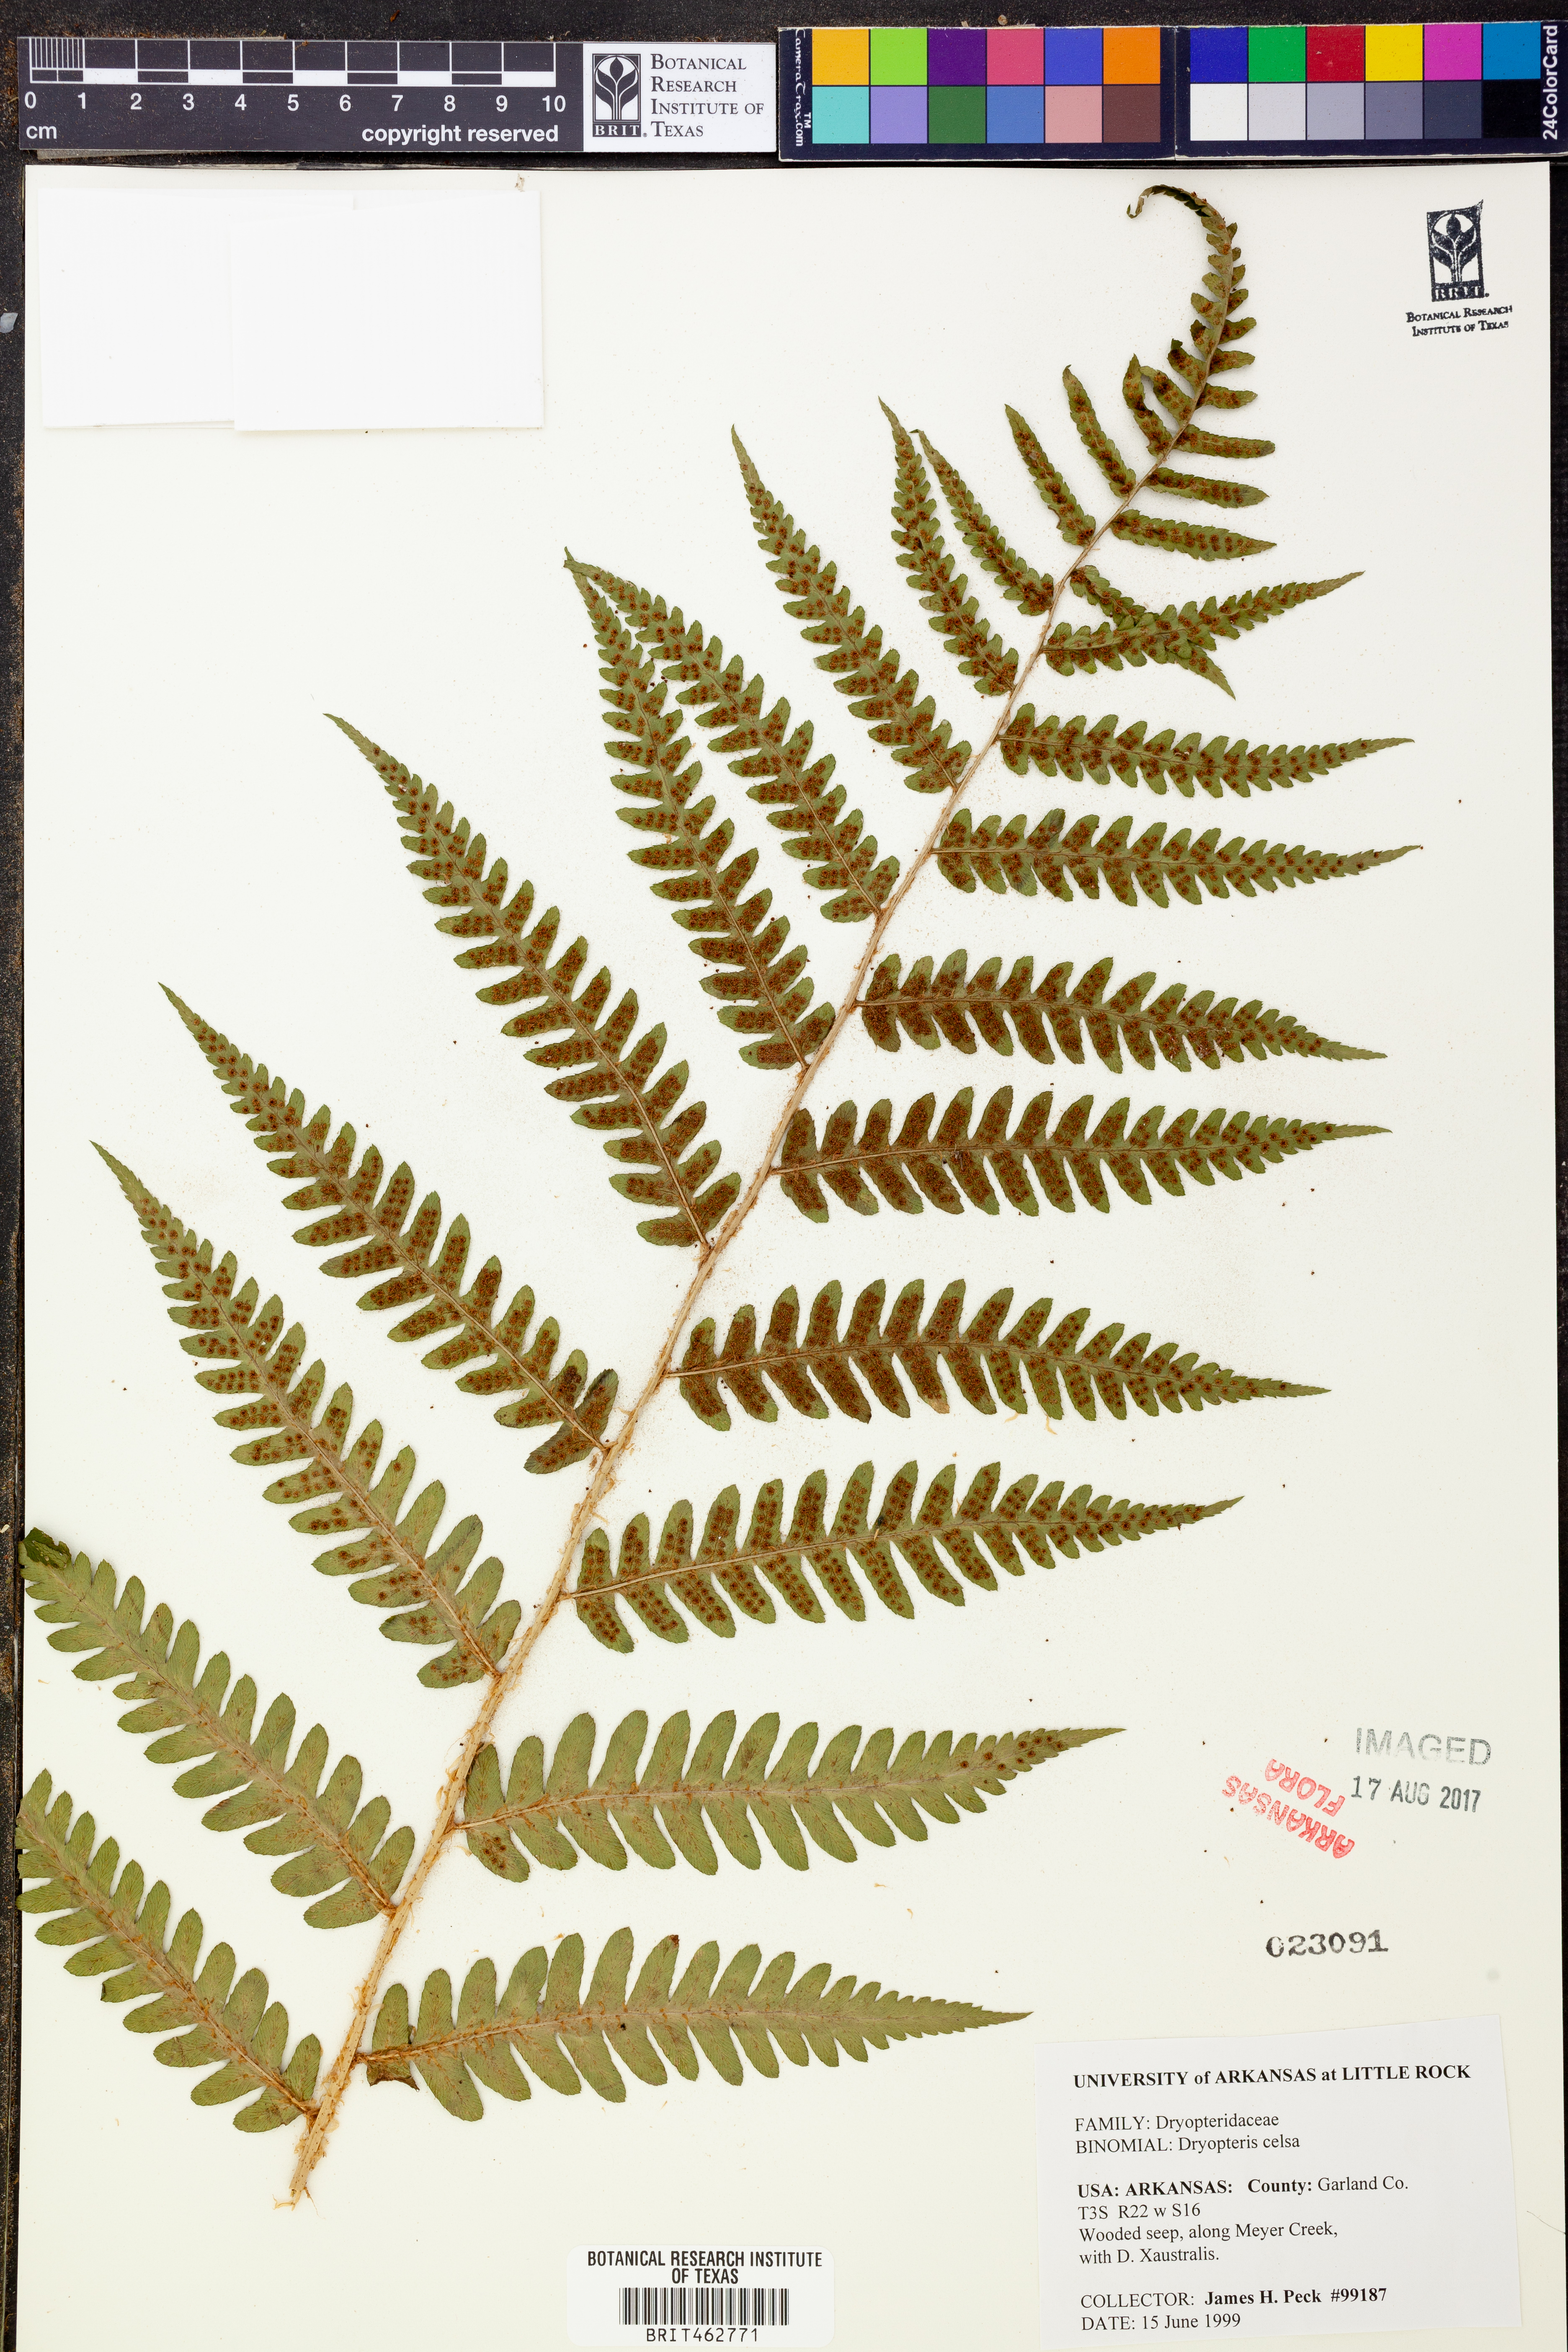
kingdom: Plantae
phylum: Tracheophyta
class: Polypodiopsida
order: Polypodiales
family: Dryopteridaceae
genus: Dryopteris
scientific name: Dryopteris celsa
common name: Log fern
